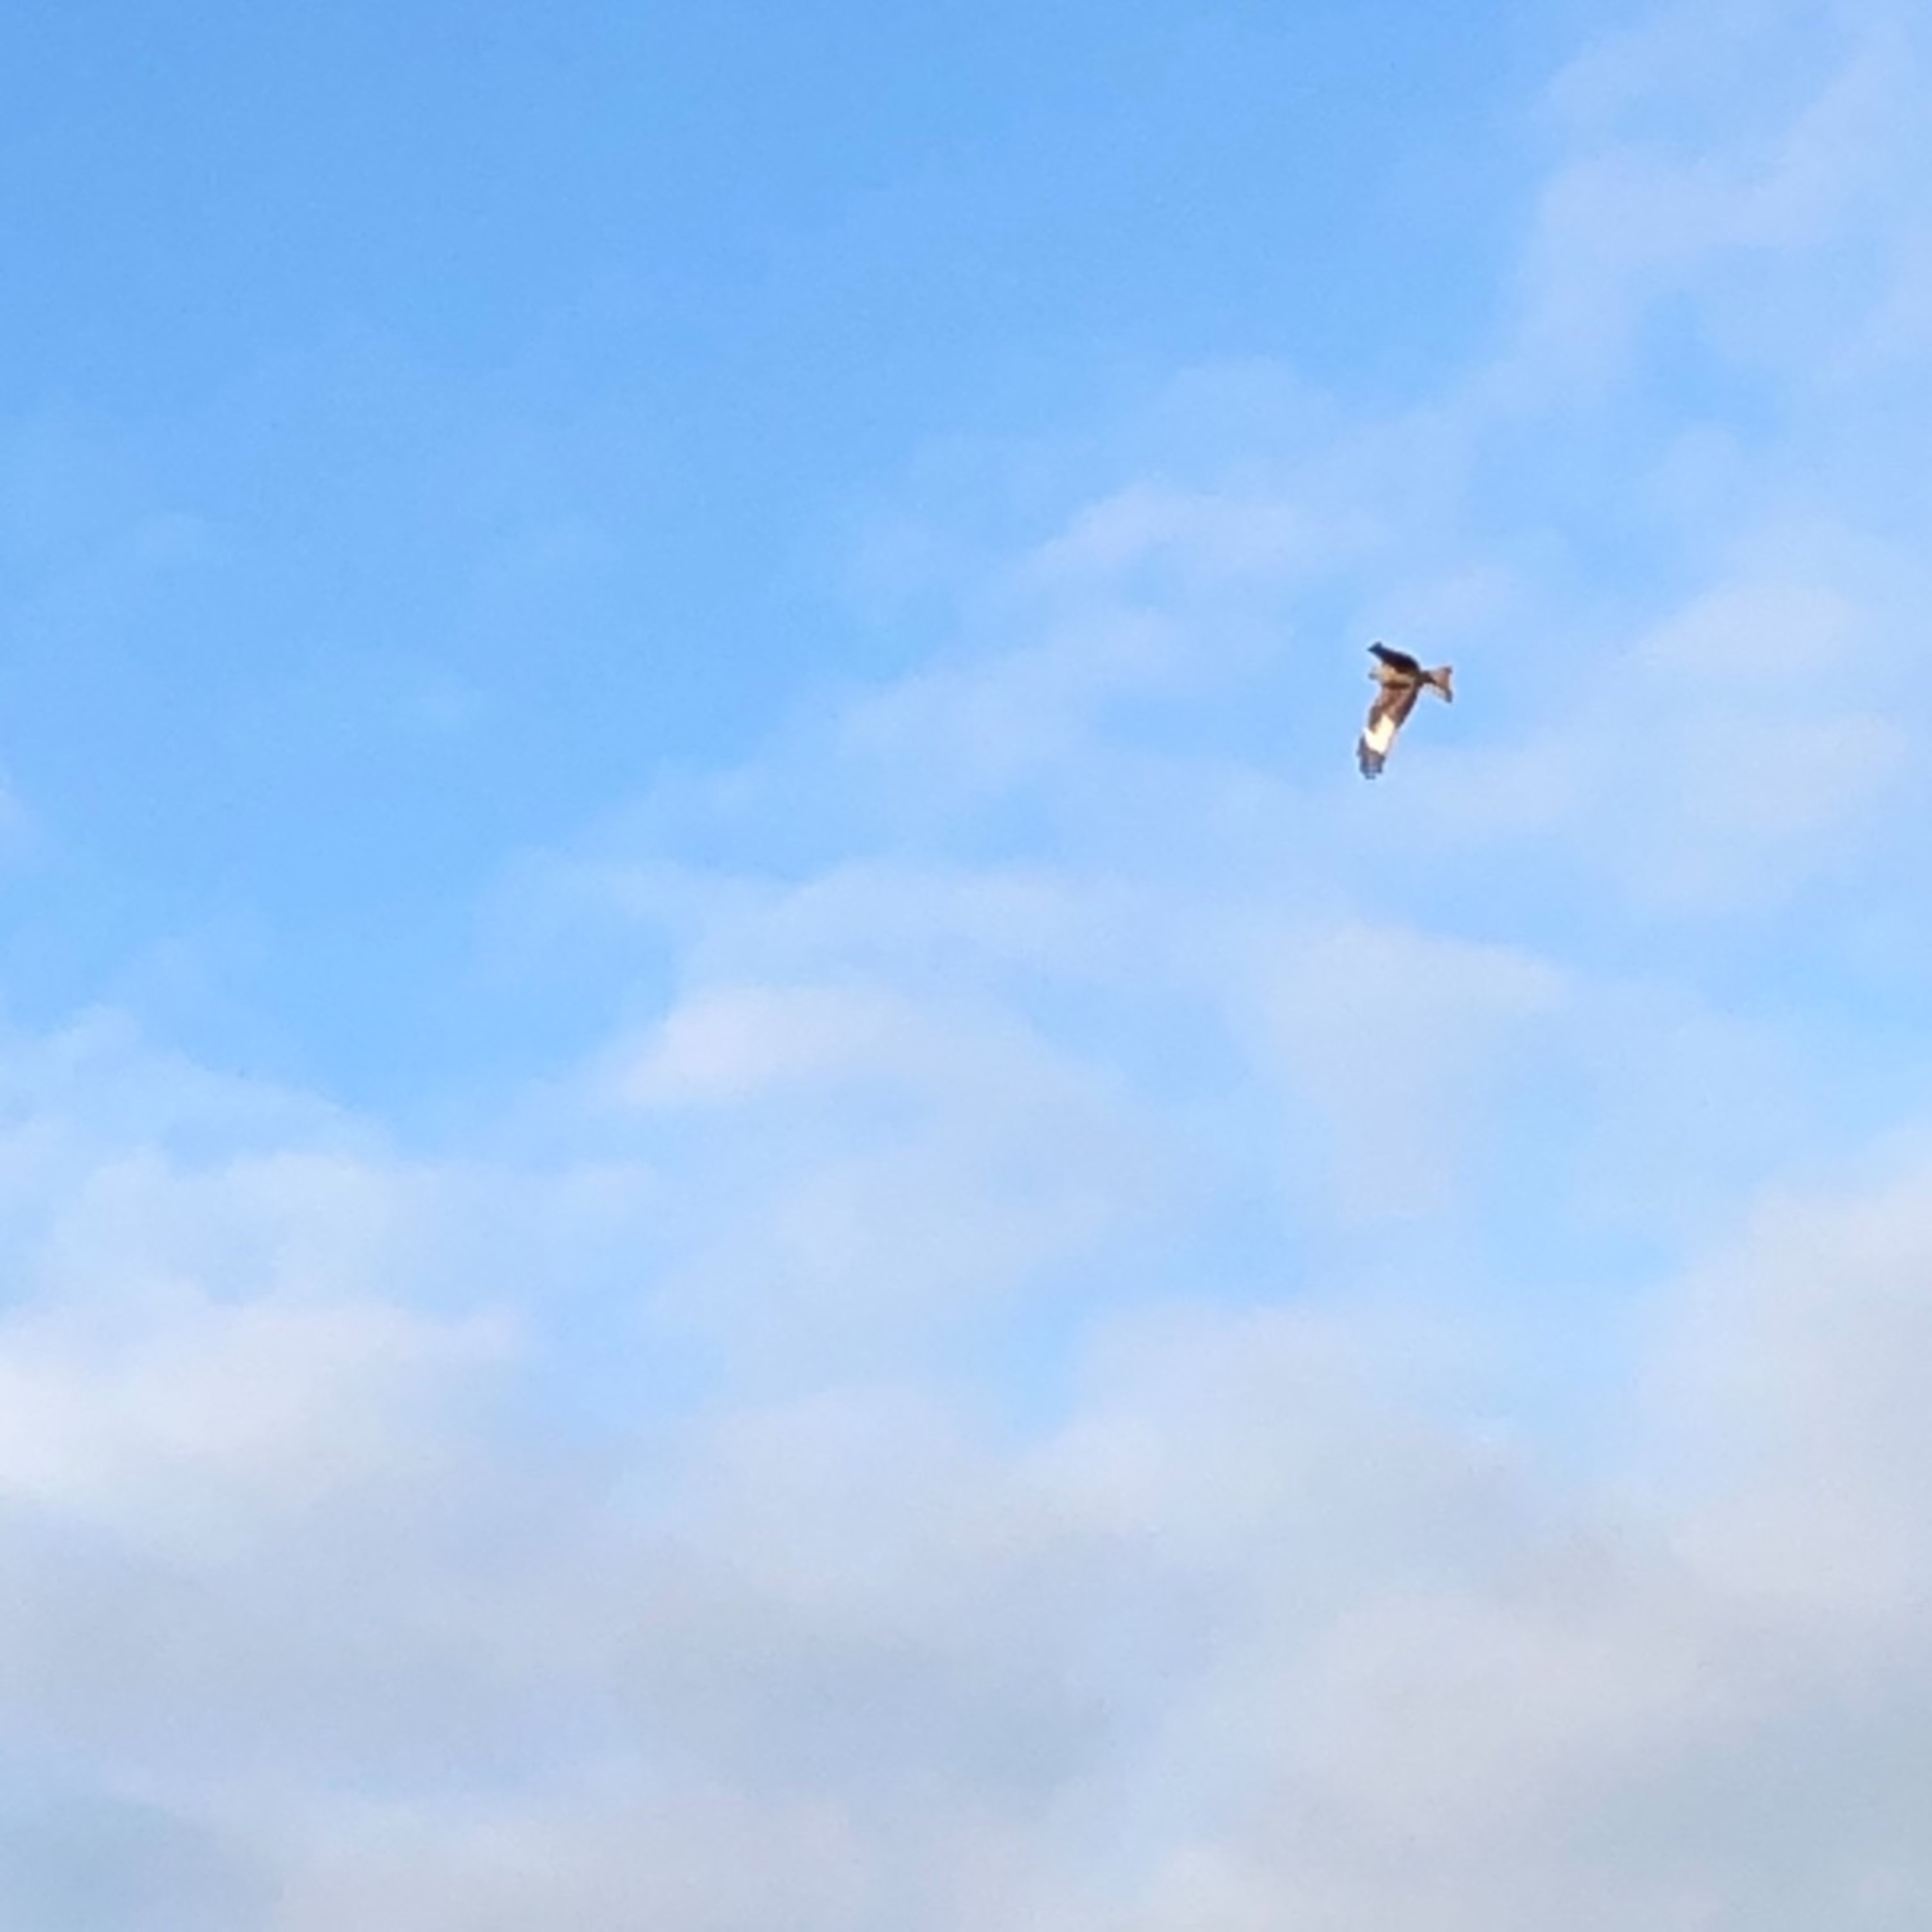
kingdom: Animalia
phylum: Chordata
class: Aves
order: Accipitriformes
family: Accipitridae
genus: Milvus
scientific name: Milvus milvus
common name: Rød glente
